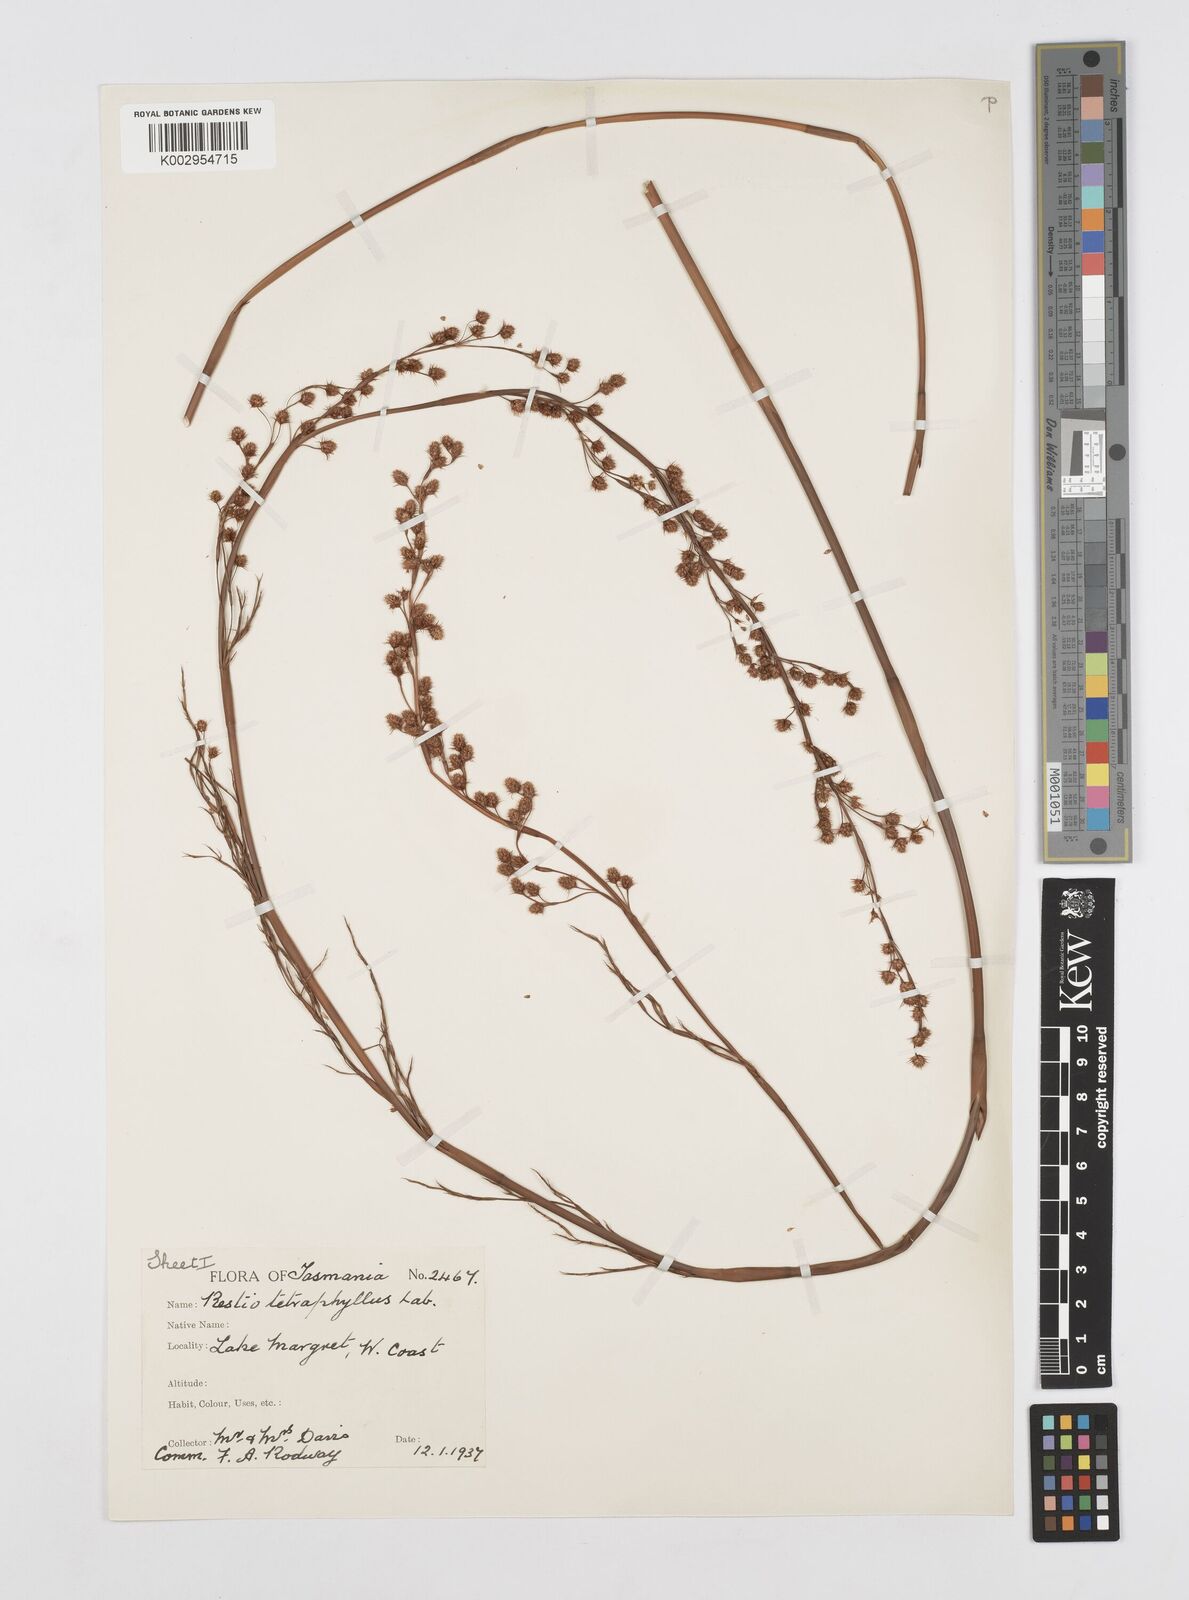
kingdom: Plantae
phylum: Tracheophyta
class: Liliopsida
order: Poales
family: Restionaceae
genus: Baloskion
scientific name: Baloskion tetraphyllum
